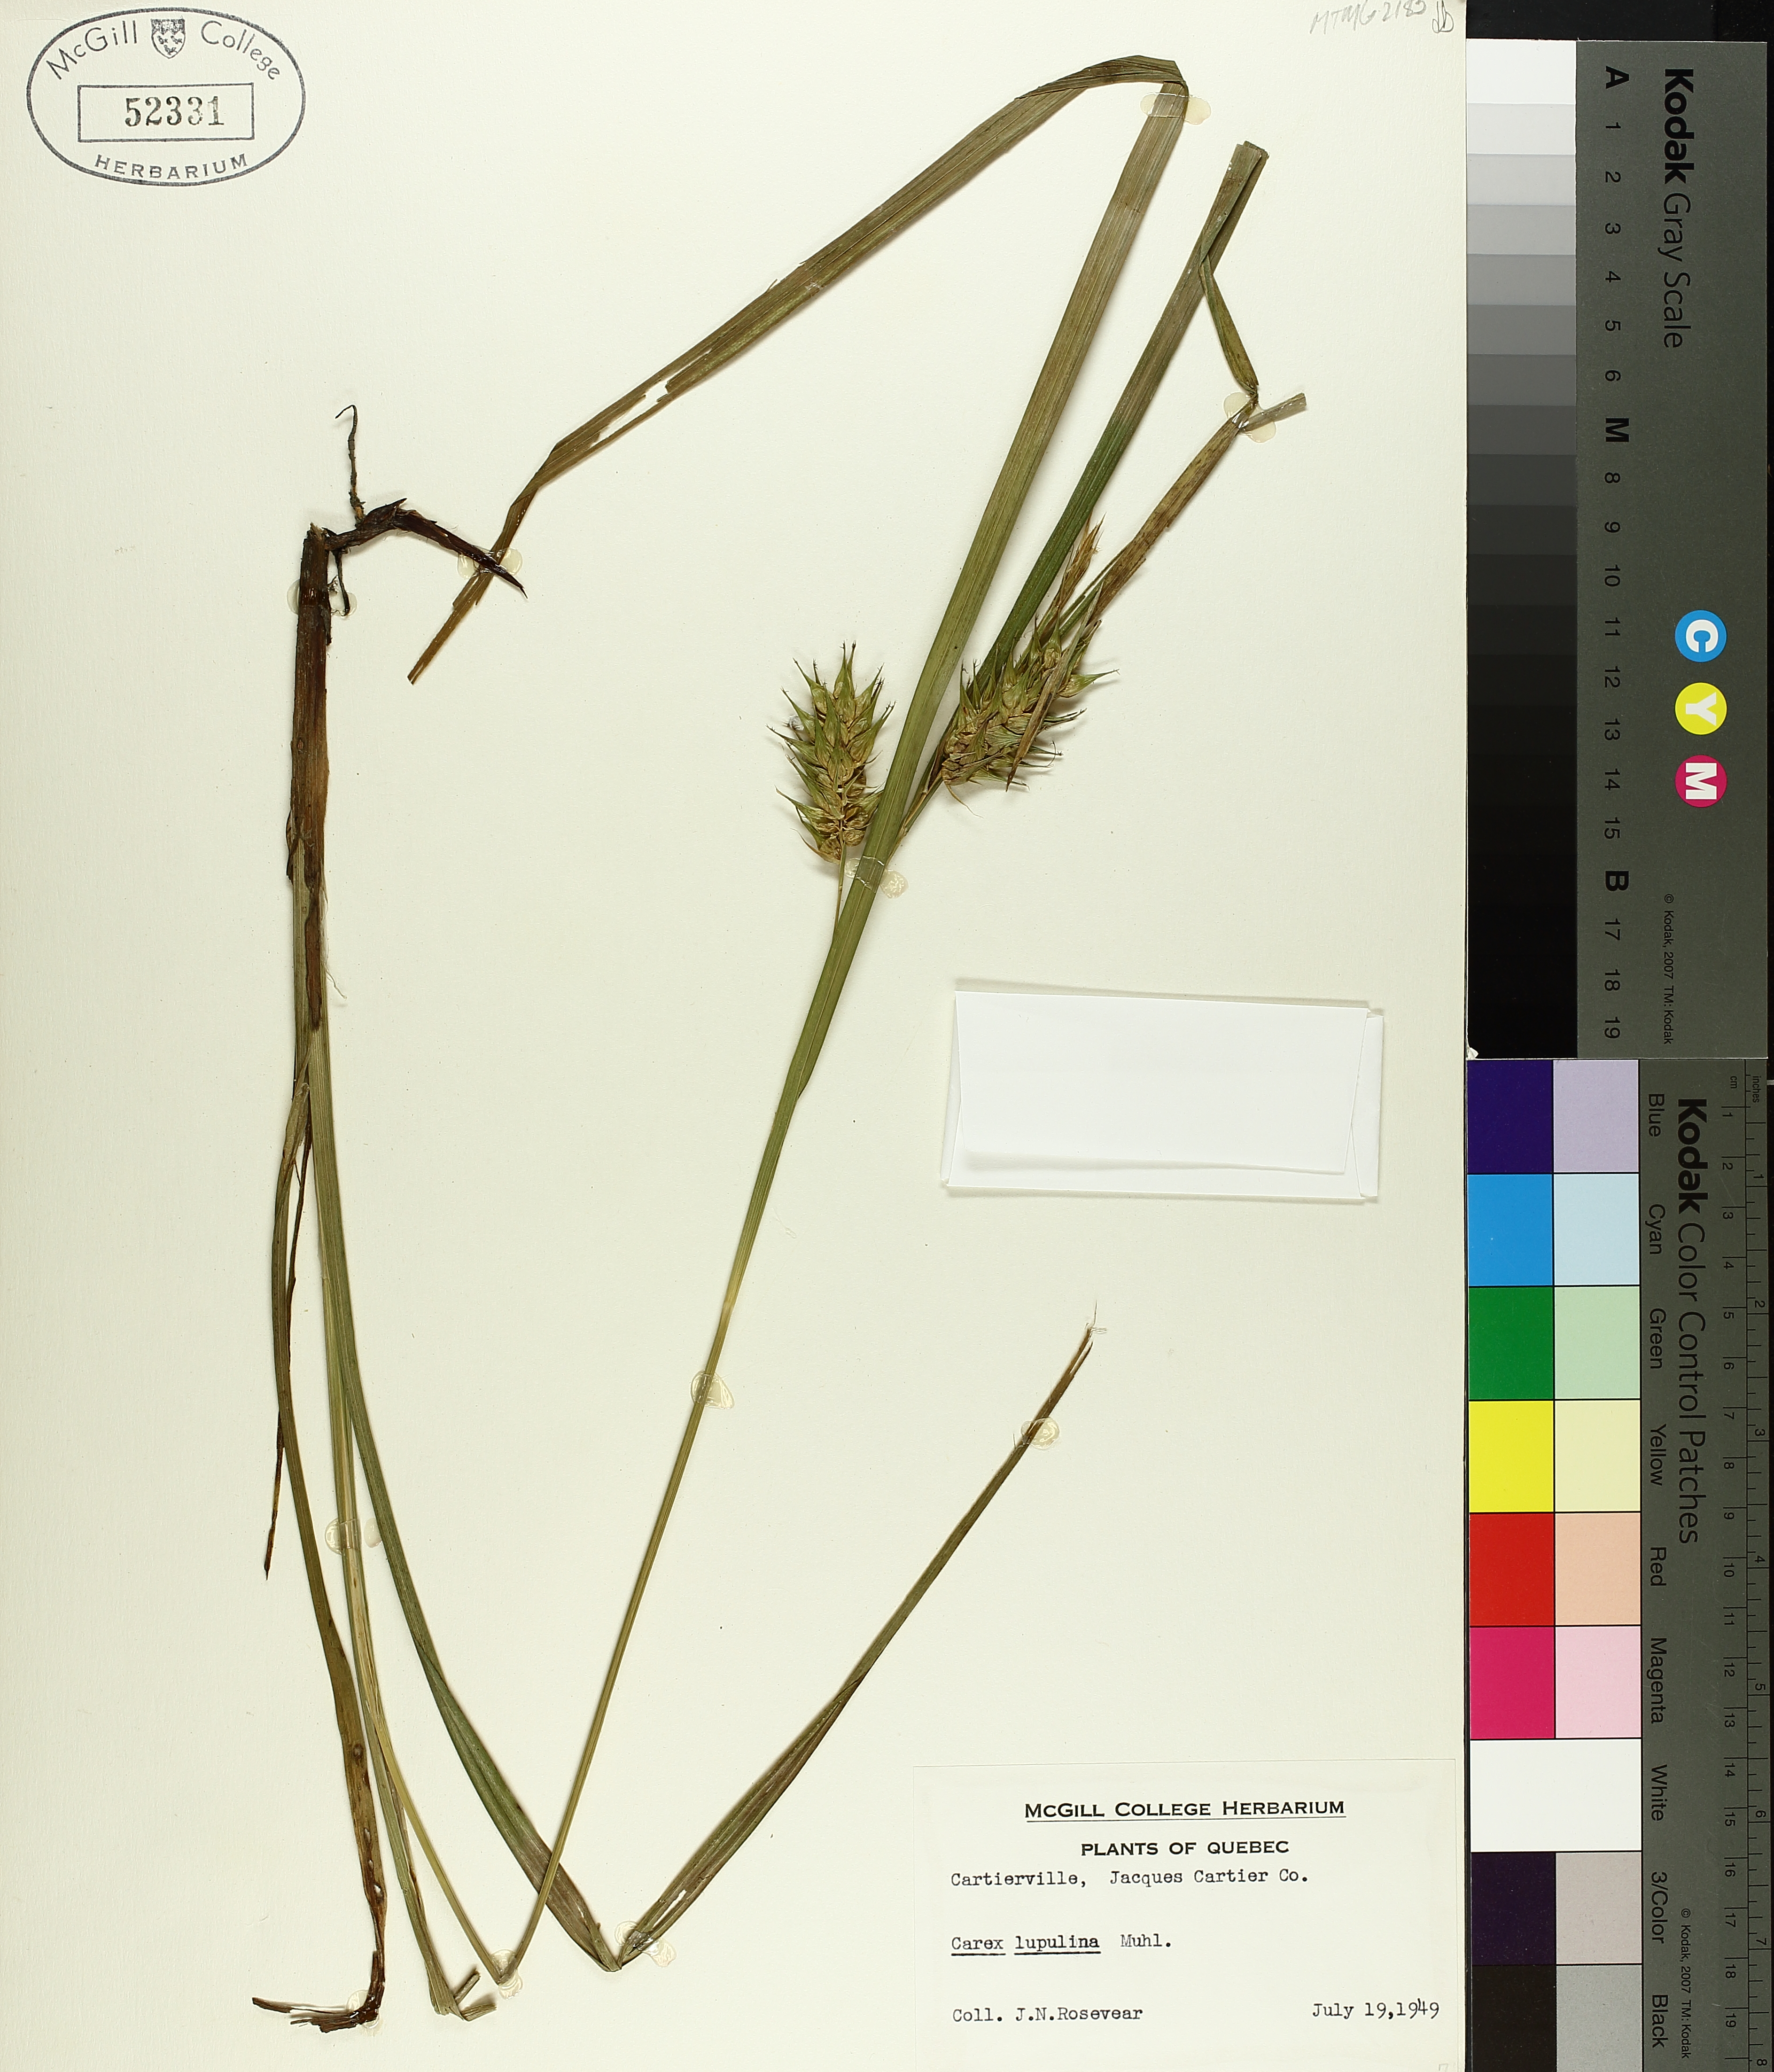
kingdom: Plantae
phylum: Tracheophyta
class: Liliopsida
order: Poales
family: Cyperaceae
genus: Carex
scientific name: Carex lupulina
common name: Hop sedge
